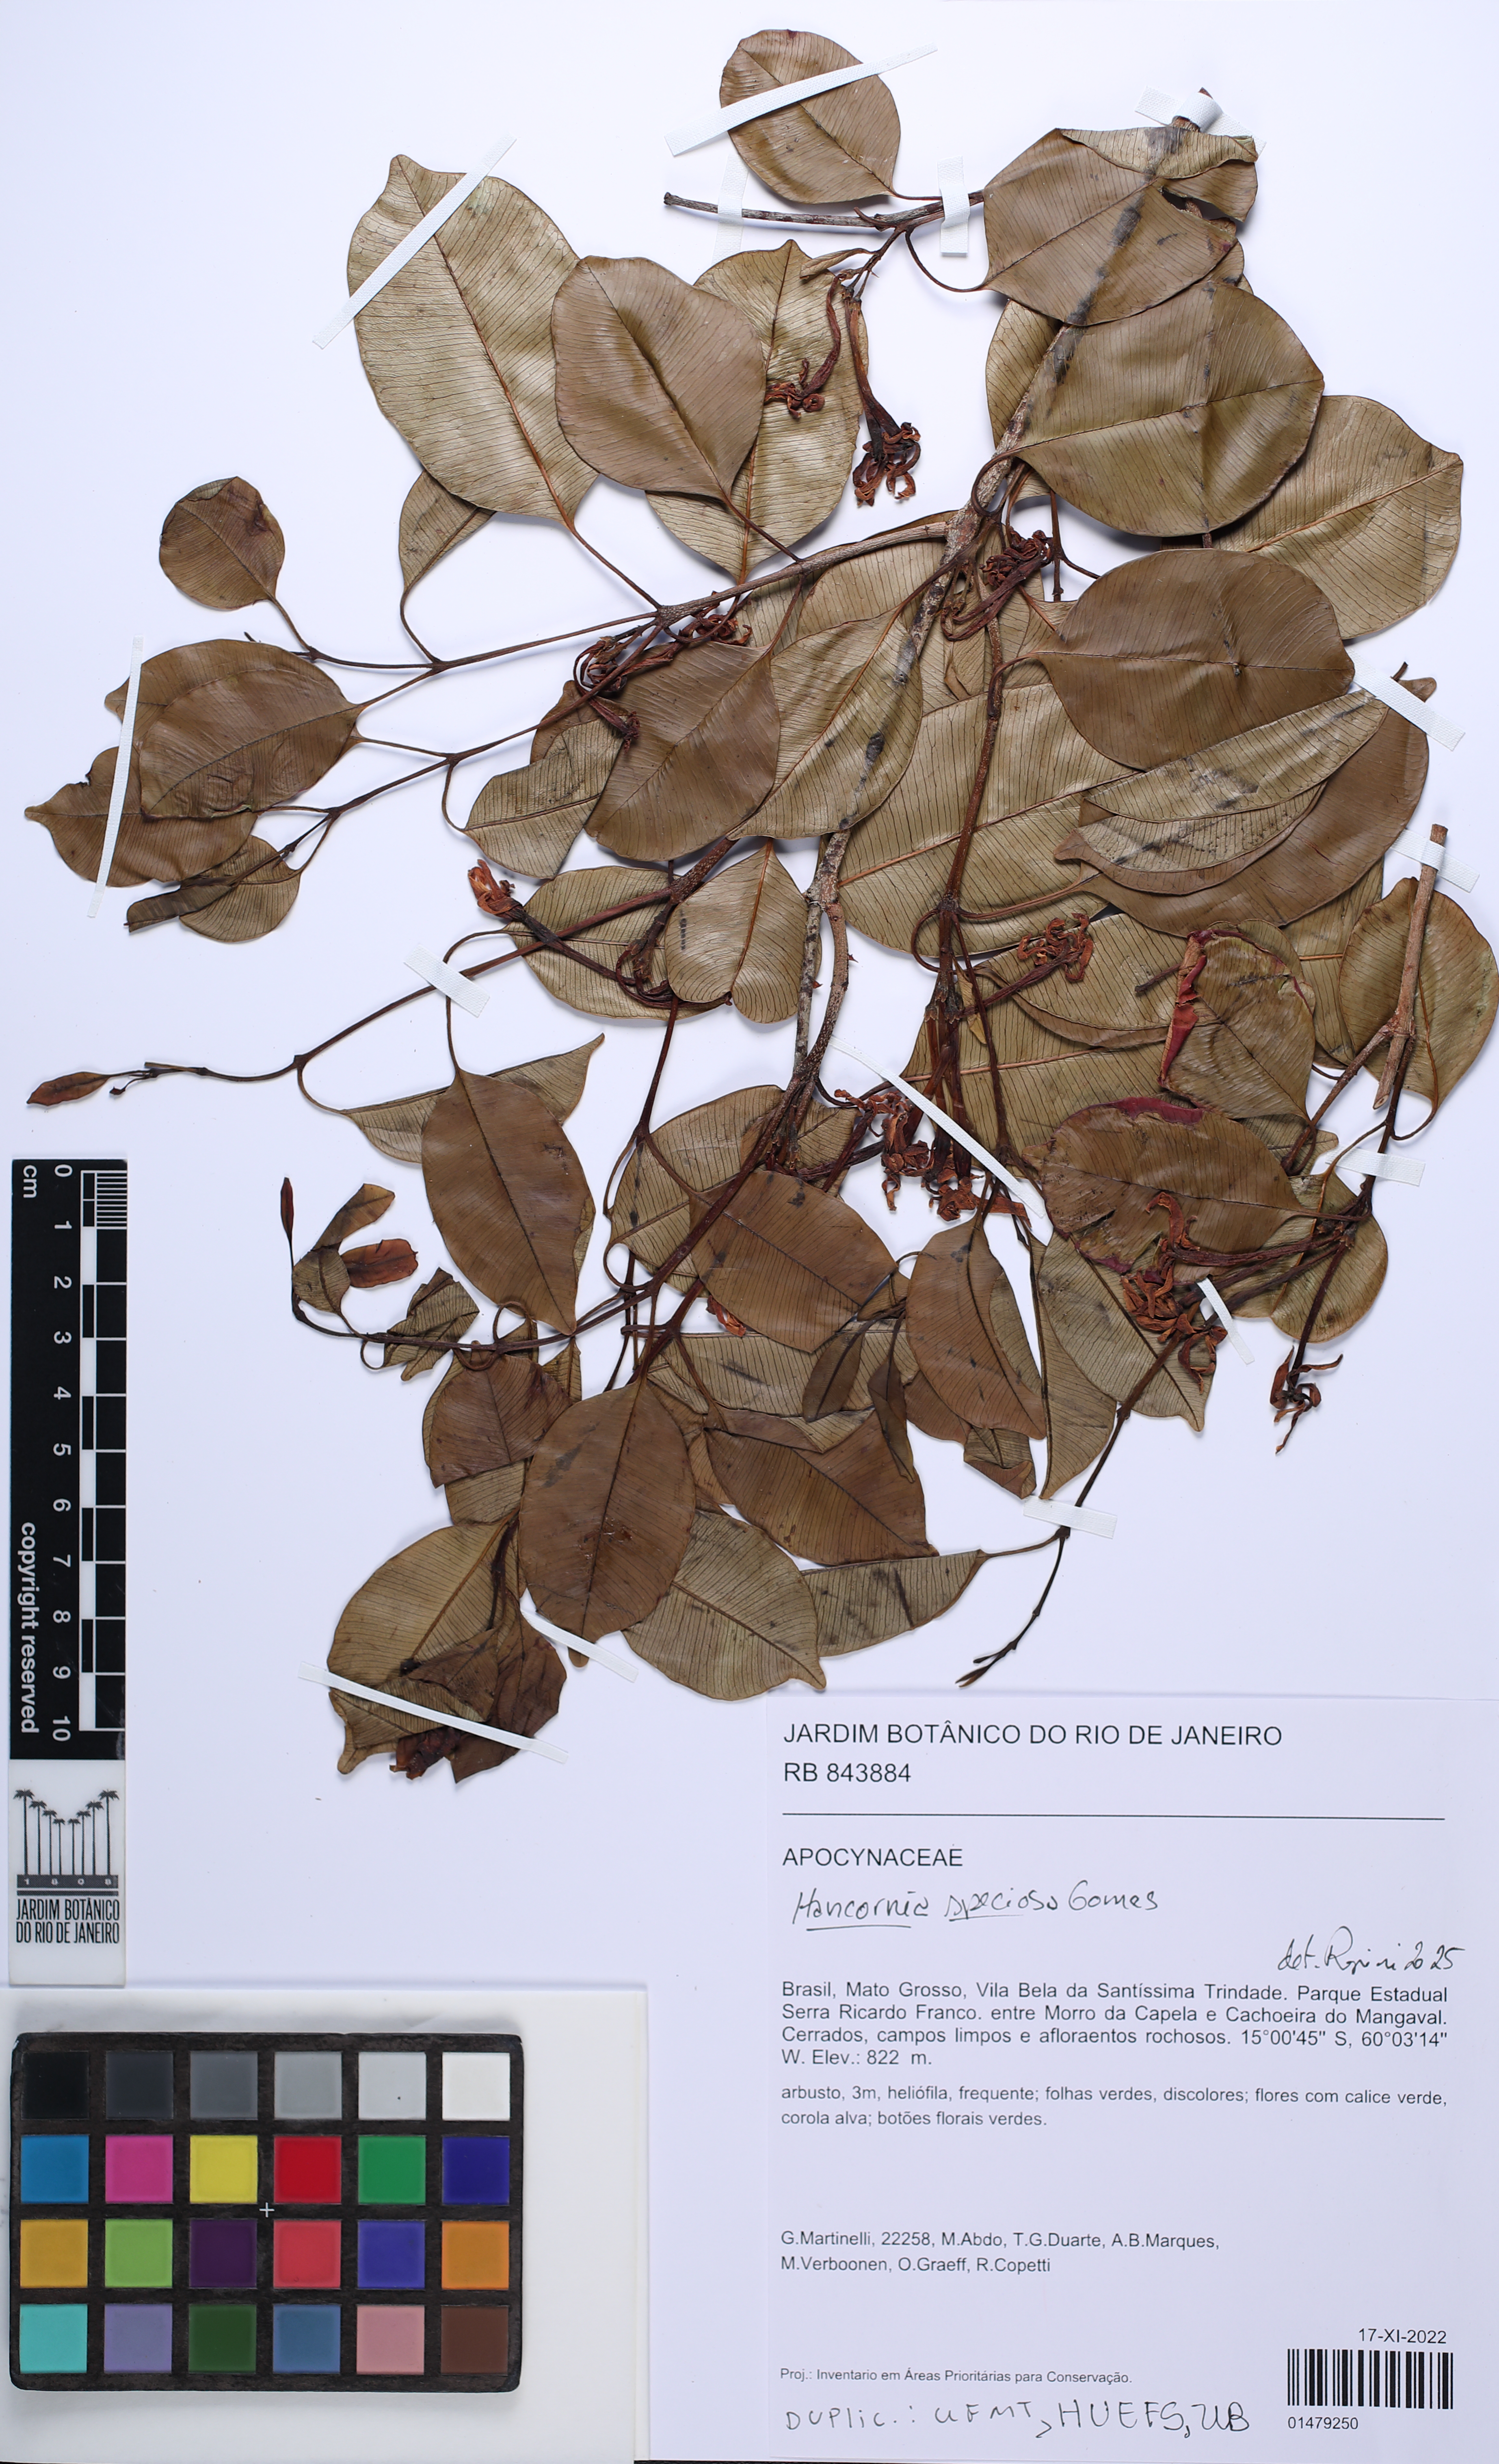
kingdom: Plantae
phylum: Tracheophyta
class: Magnoliopsida
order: Gentianales
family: Apocynaceae
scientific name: Apocynaceae
